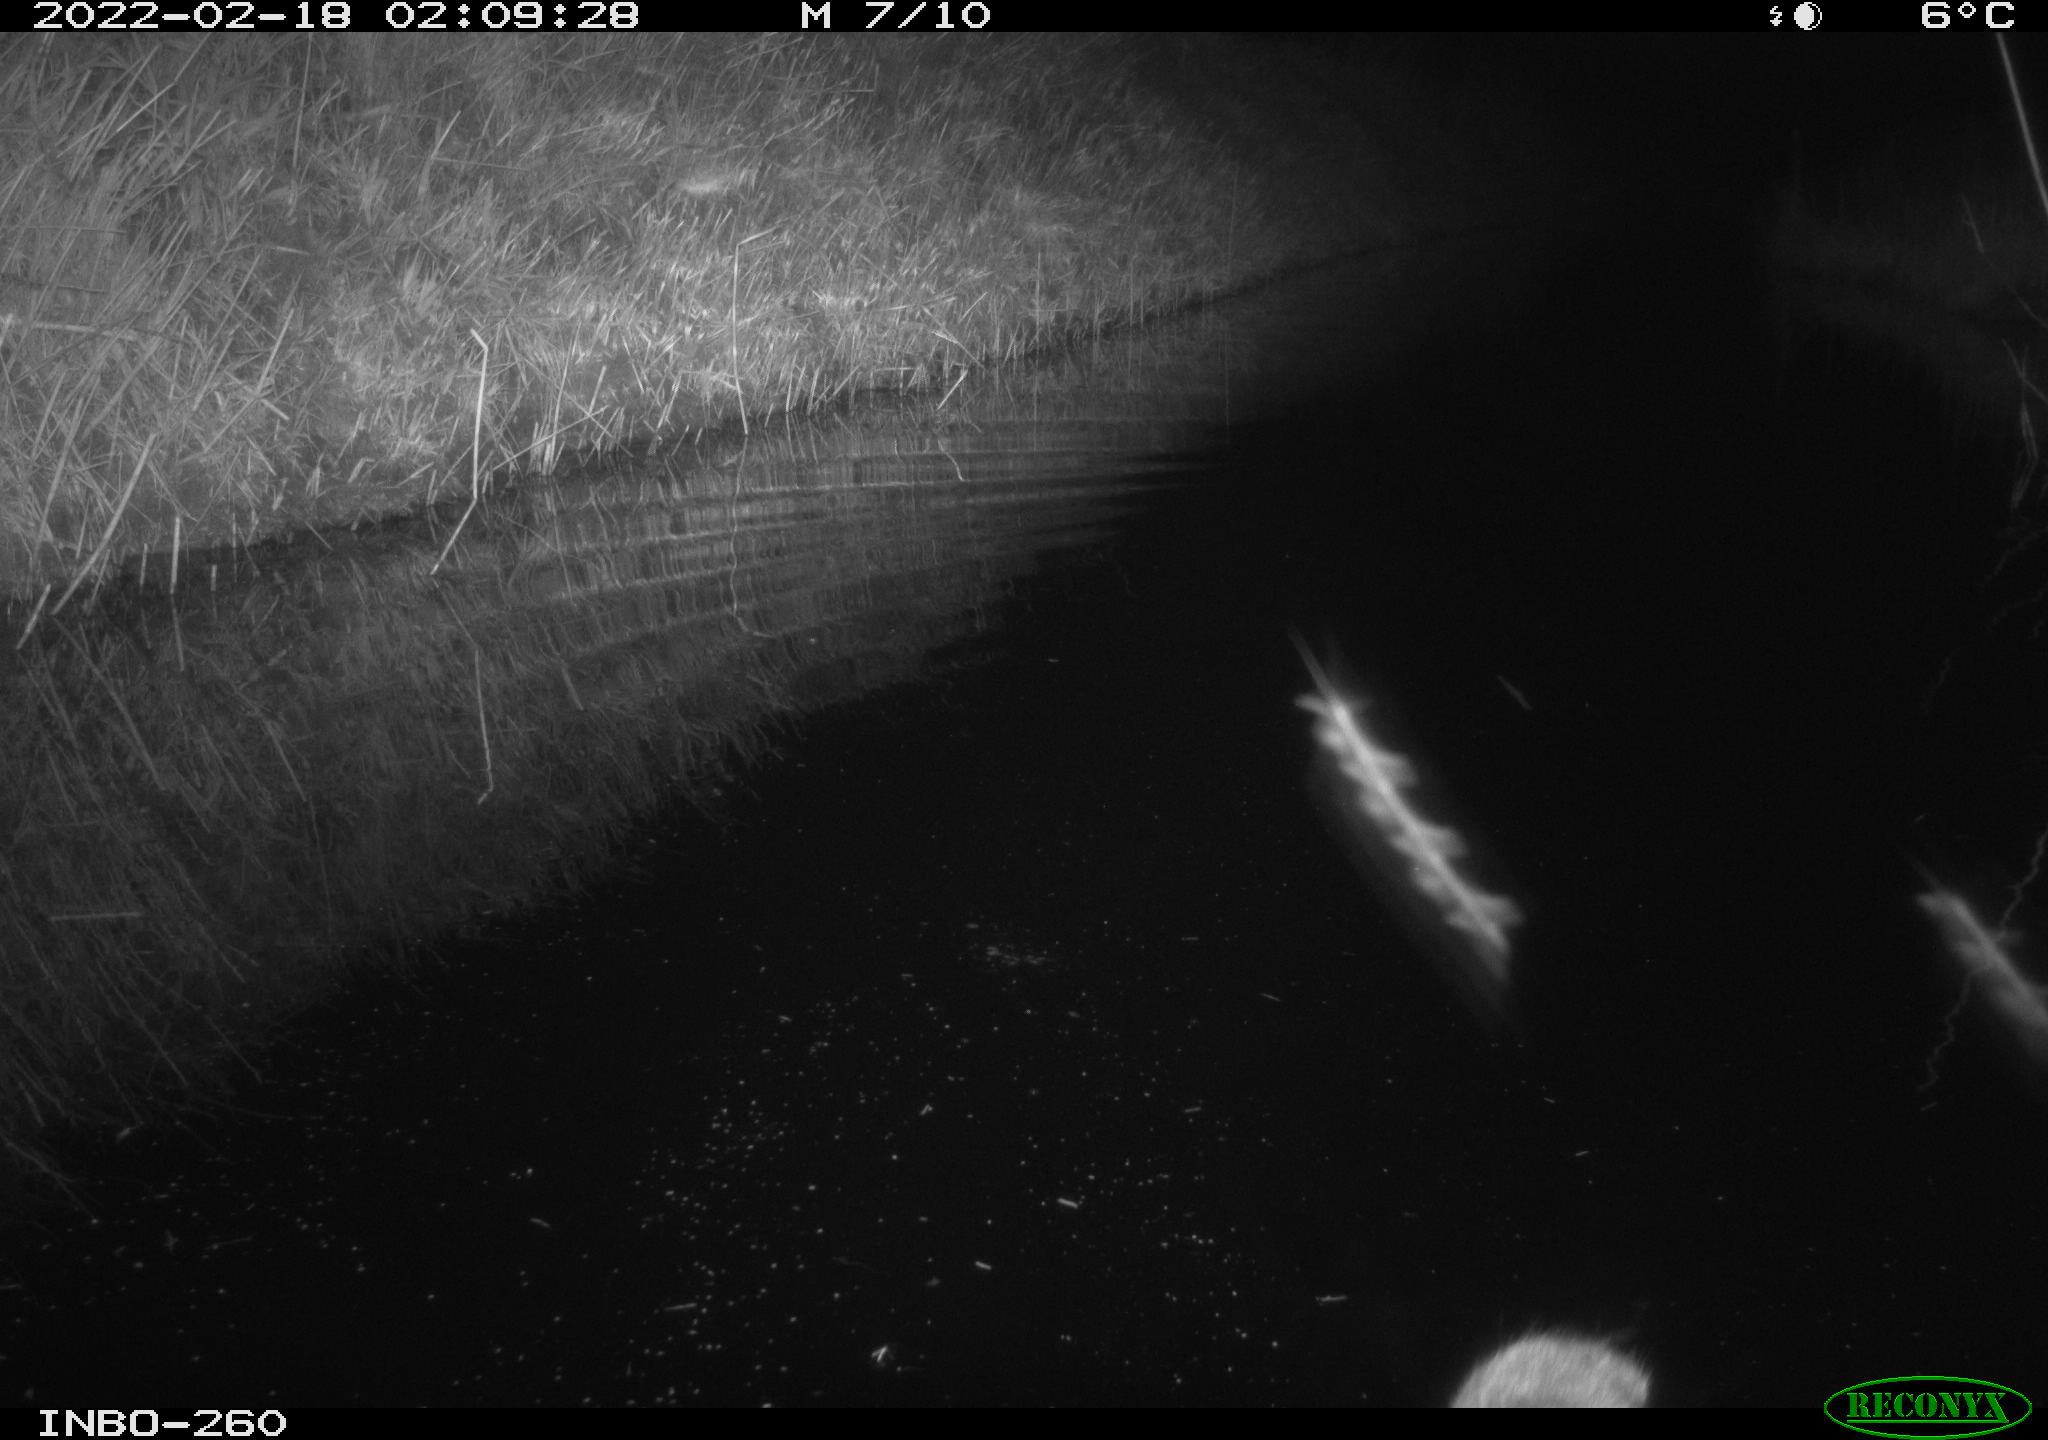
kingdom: Animalia
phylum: Chordata
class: Mammalia
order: Rodentia
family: Muridae
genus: Rattus
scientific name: Rattus norvegicus
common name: Brown rat
